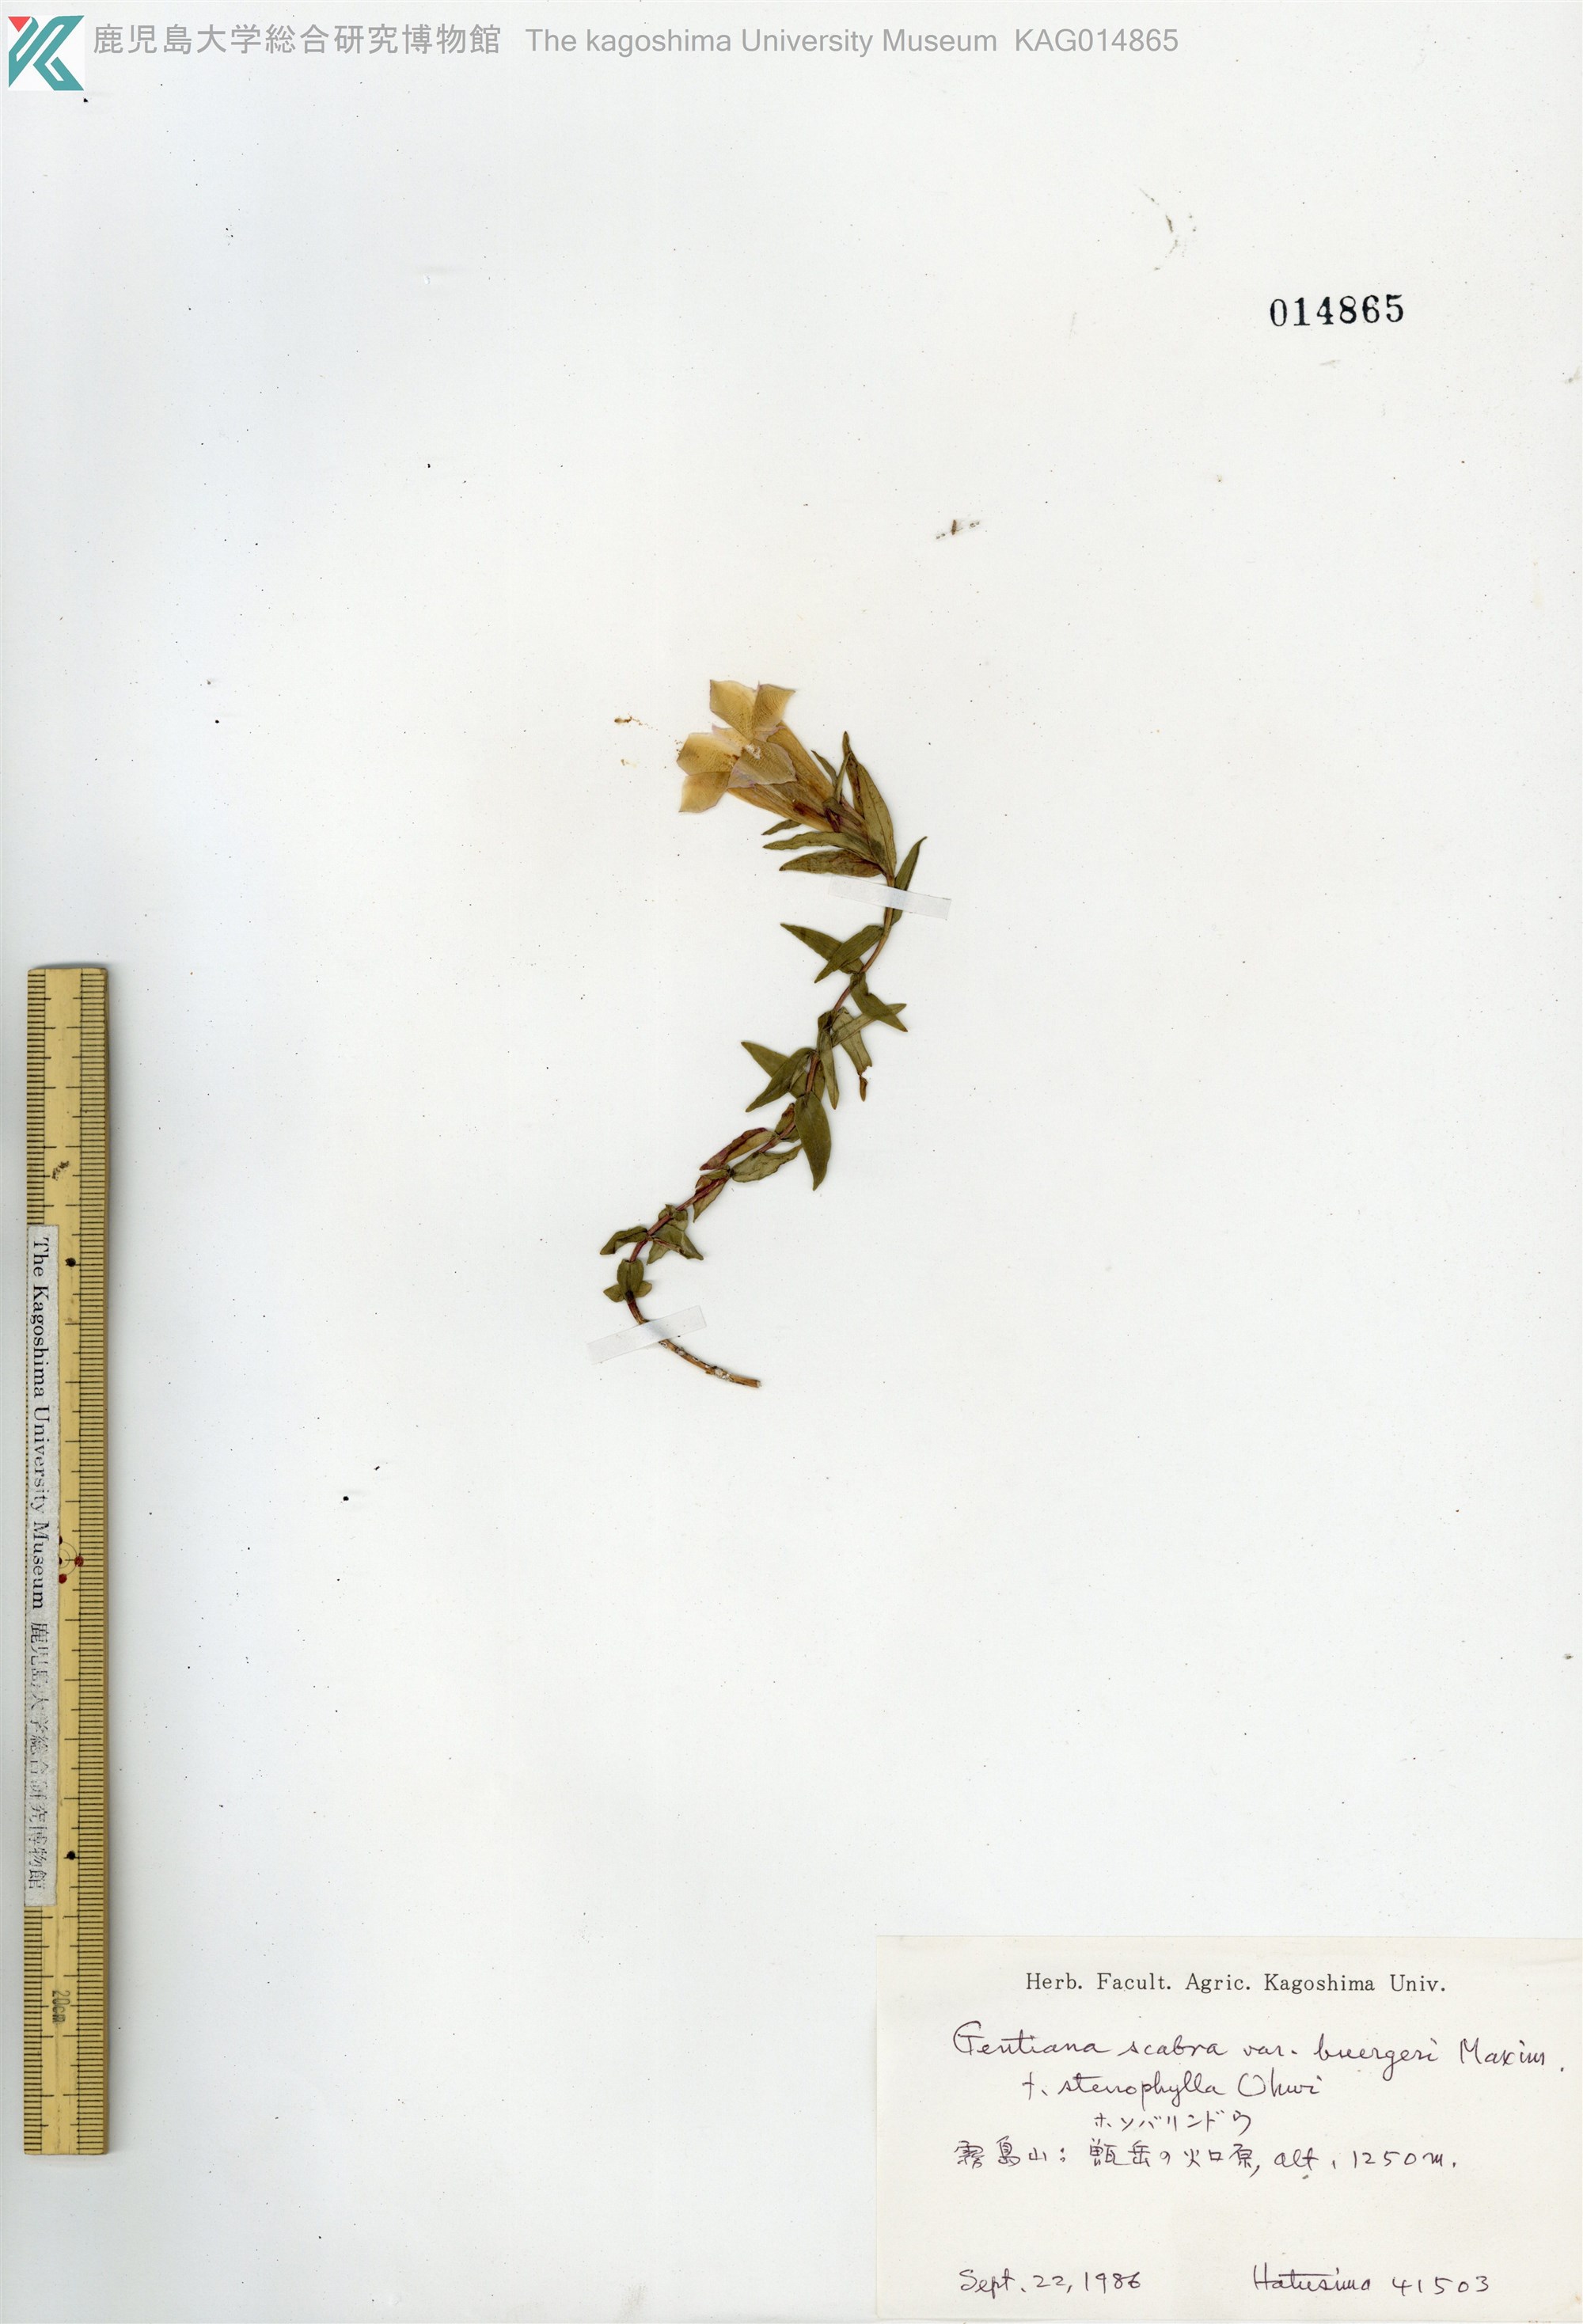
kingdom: Plantae
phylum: Tracheophyta
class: Magnoliopsida
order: Gentianales
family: Gentianaceae
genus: Gentiana
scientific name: Gentiana scabra
